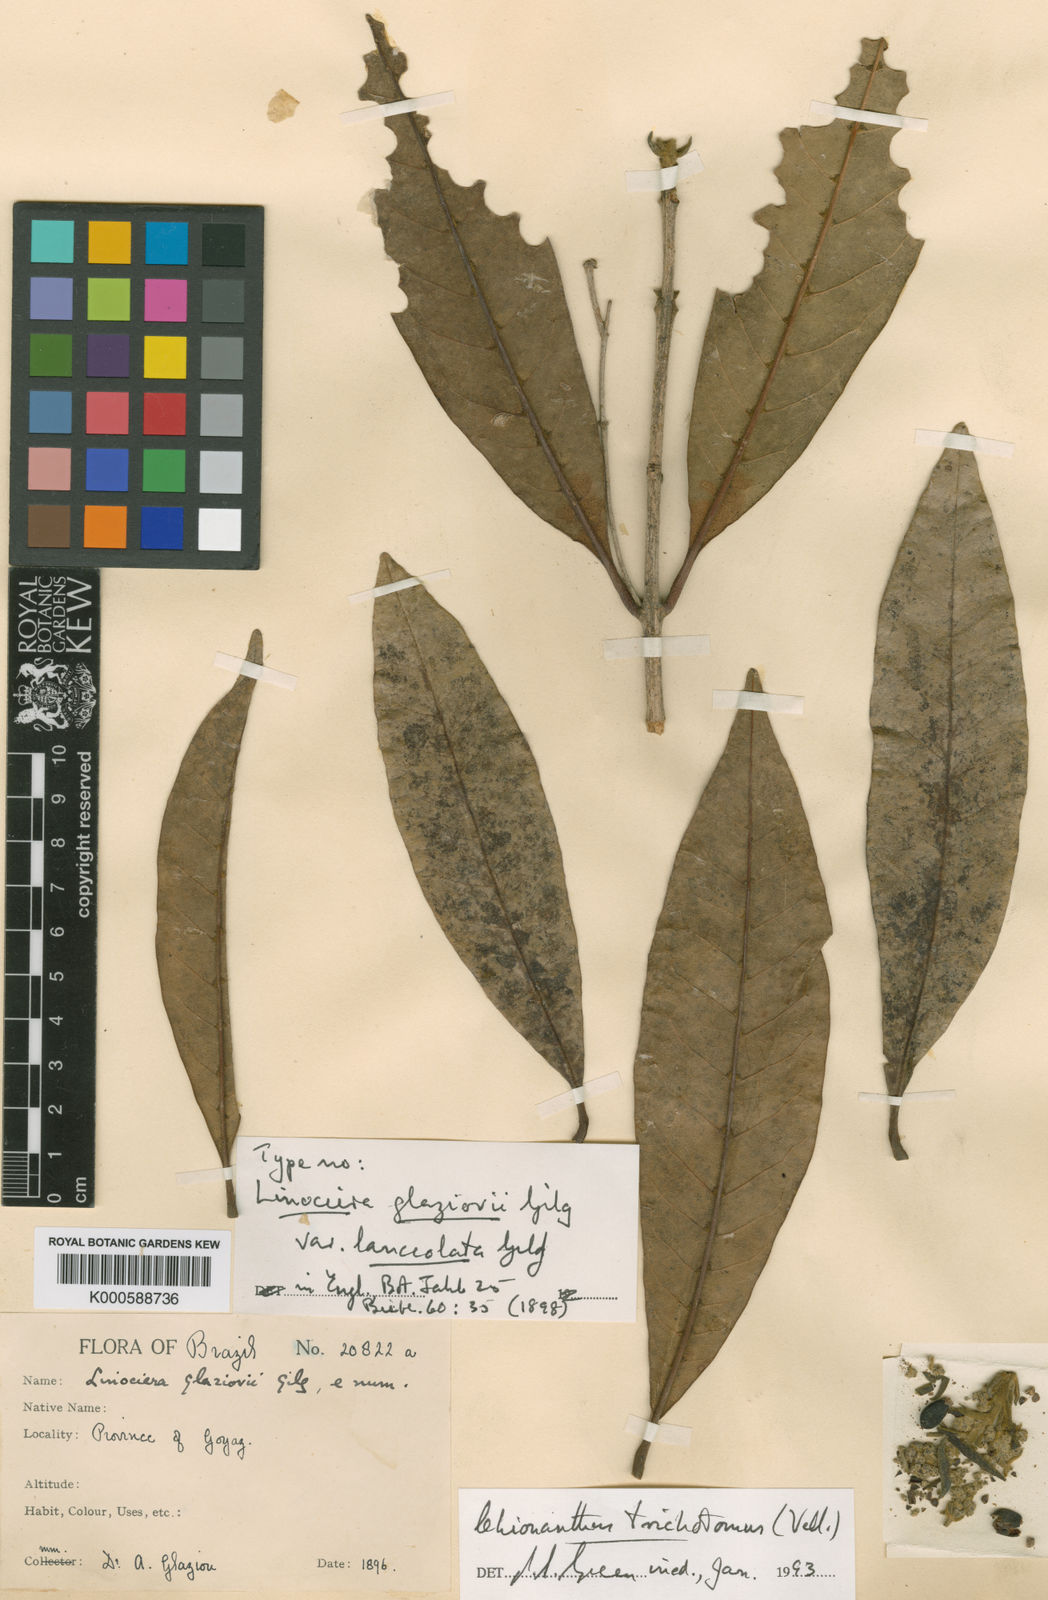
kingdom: Plantae
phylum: Tracheophyta
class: Magnoliopsida
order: Lamiales
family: Oleaceae
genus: Chionanthus
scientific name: Chionanthus trichotomus
